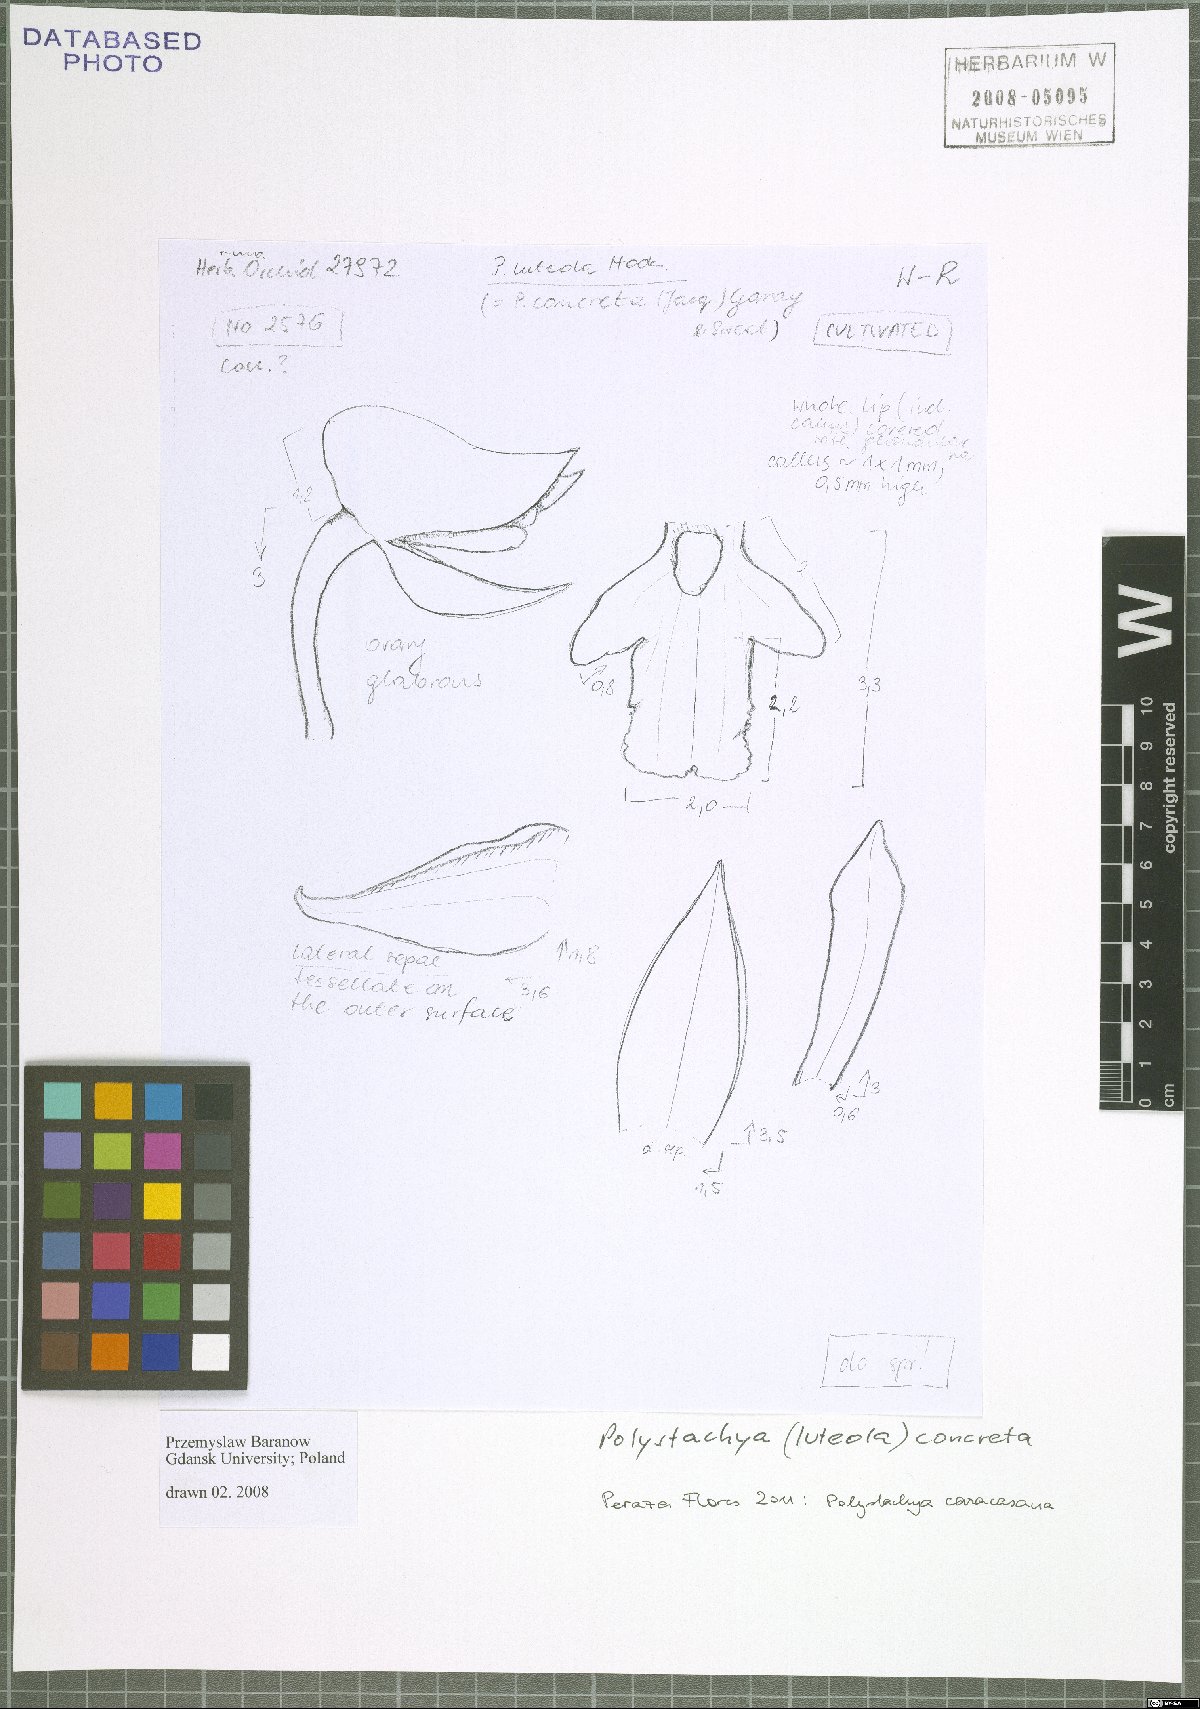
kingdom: Plantae
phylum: Tracheophyta
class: Liliopsida
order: Asparagales
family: Orchidaceae
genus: Polystachya
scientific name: Polystachya foliosa
